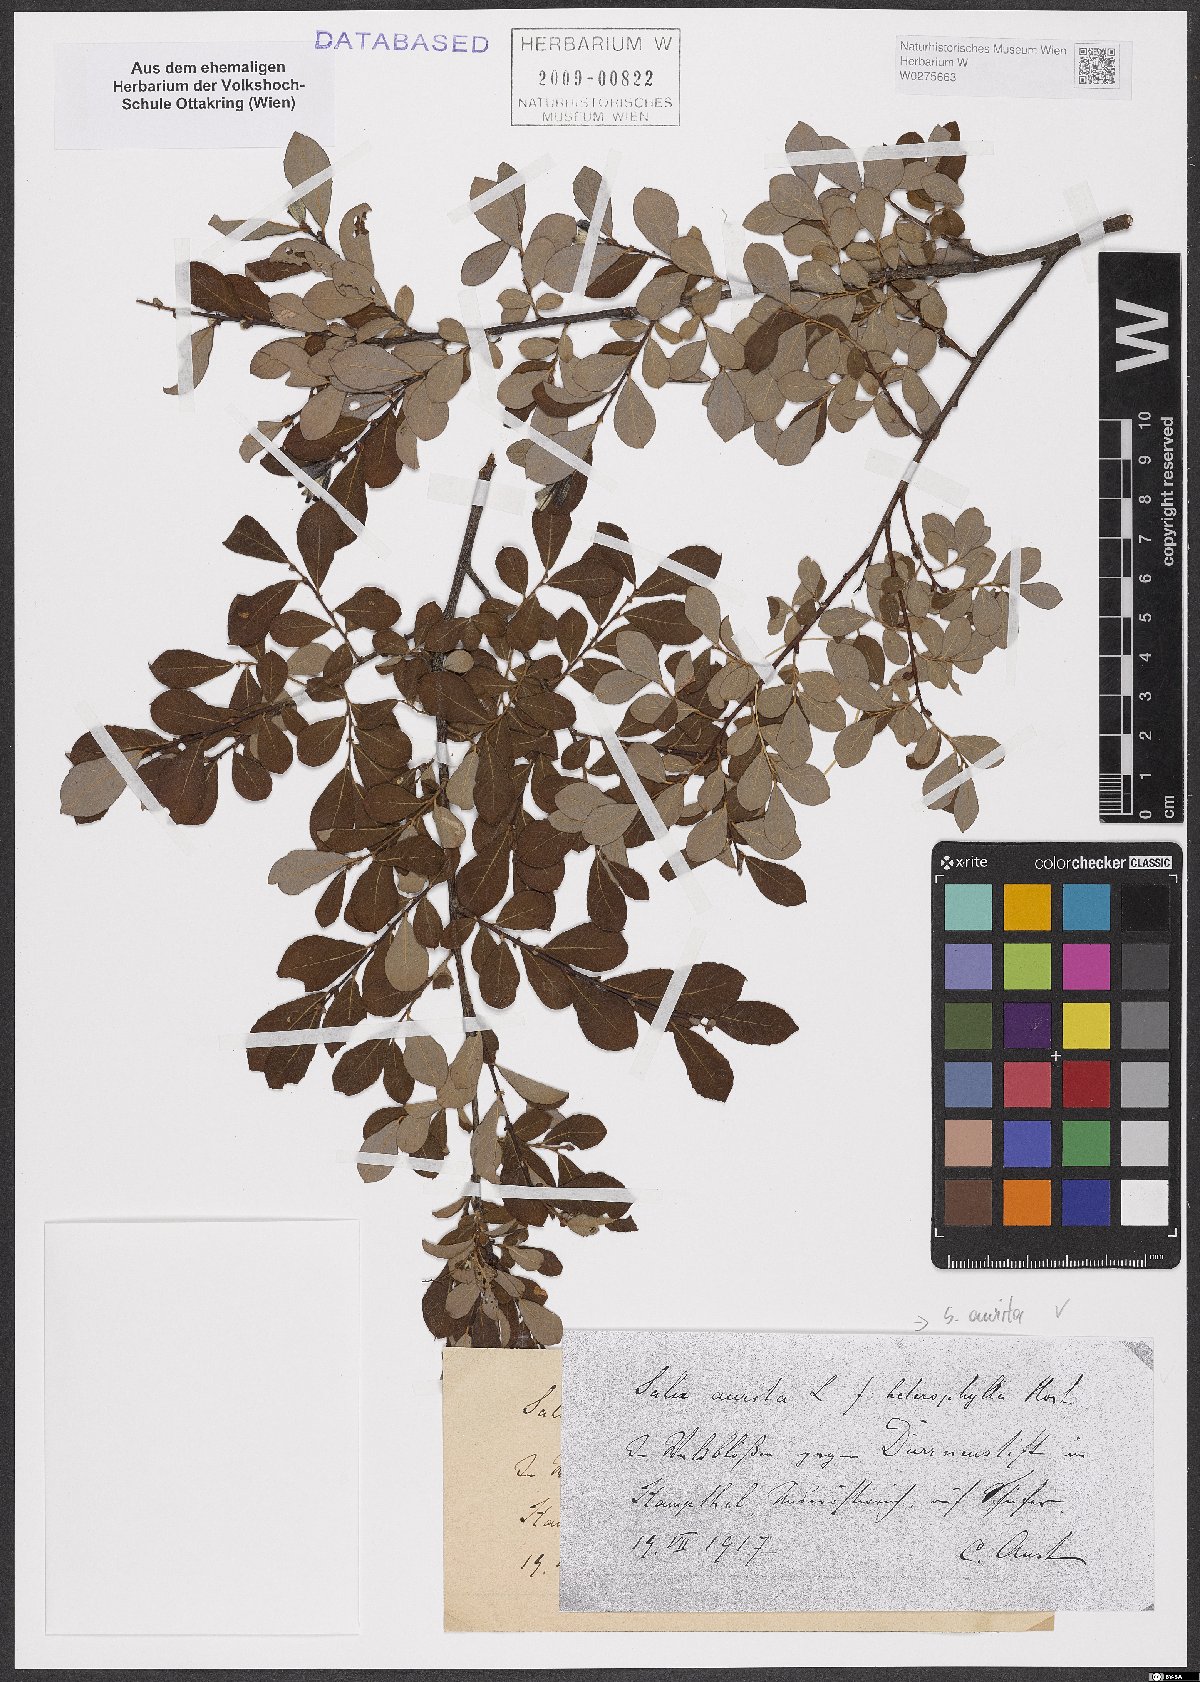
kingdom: Plantae
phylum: Tracheophyta
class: Magnoliopsida
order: Malpighiales
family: Salicaceae
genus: Salix
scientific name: Salix aurita
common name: Eared willow
